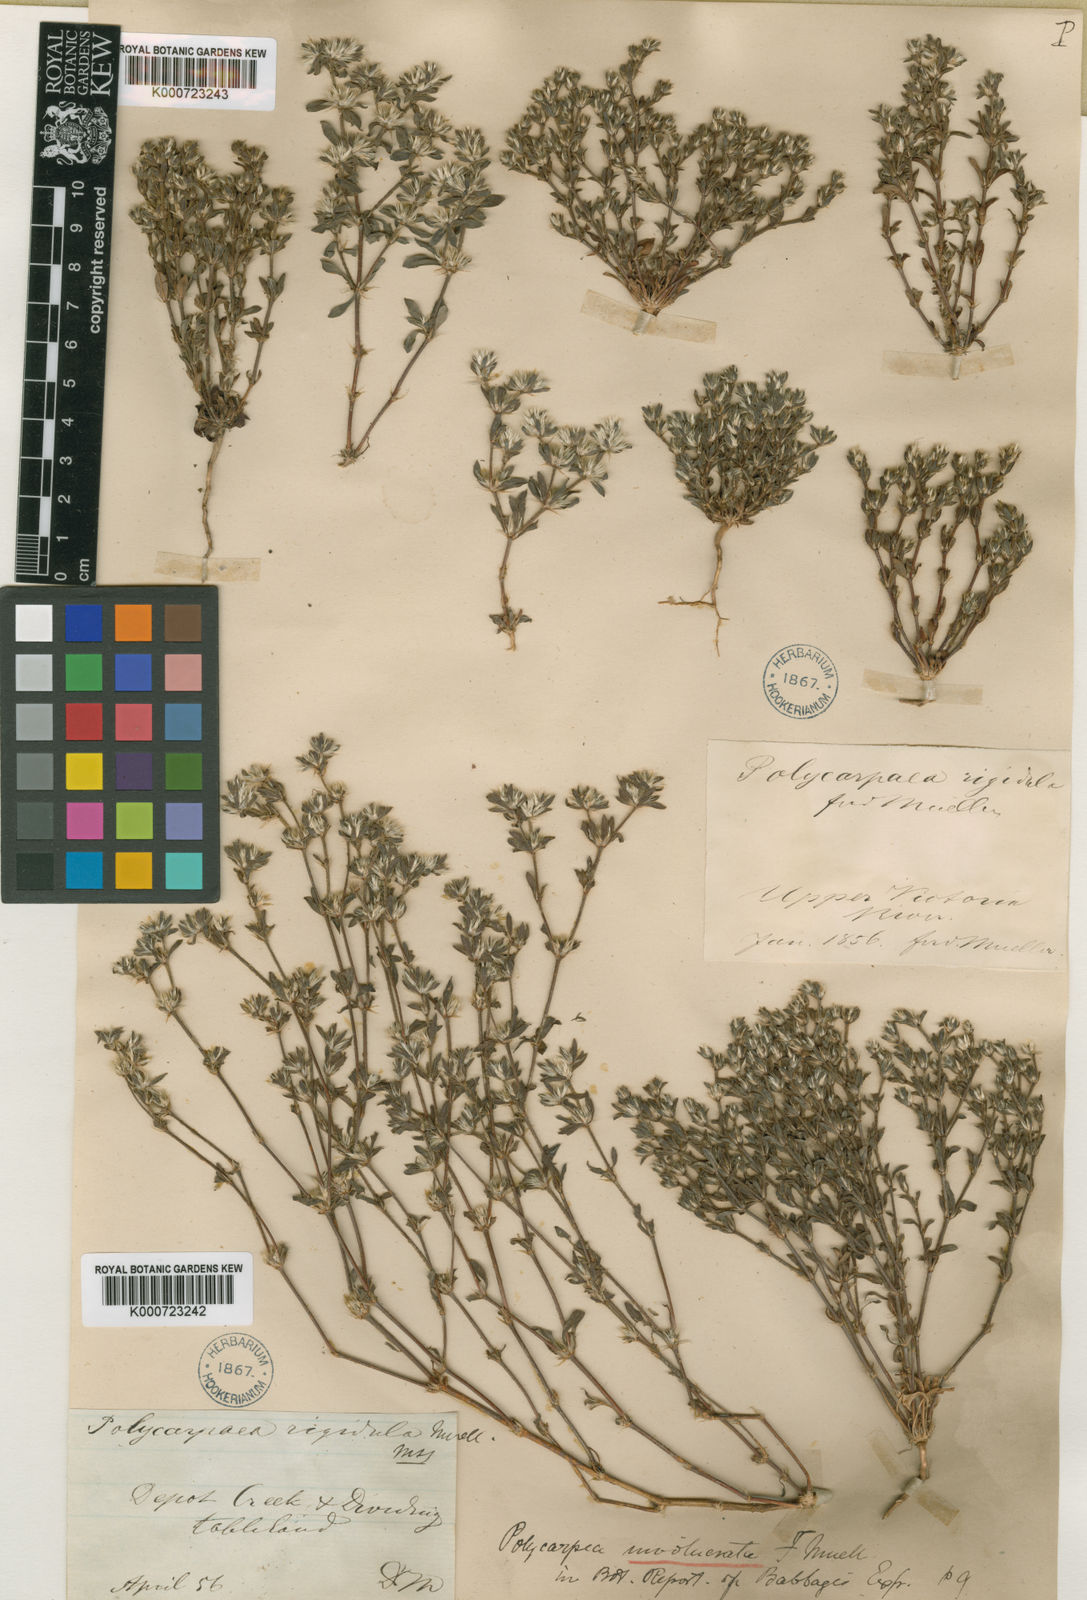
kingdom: Plantae
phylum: Tracheophyta
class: Magnoliopsida
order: Caryophyllales
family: Caryophyllaceae
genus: Polycarpaea
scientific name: Polycarpaea involucrata
